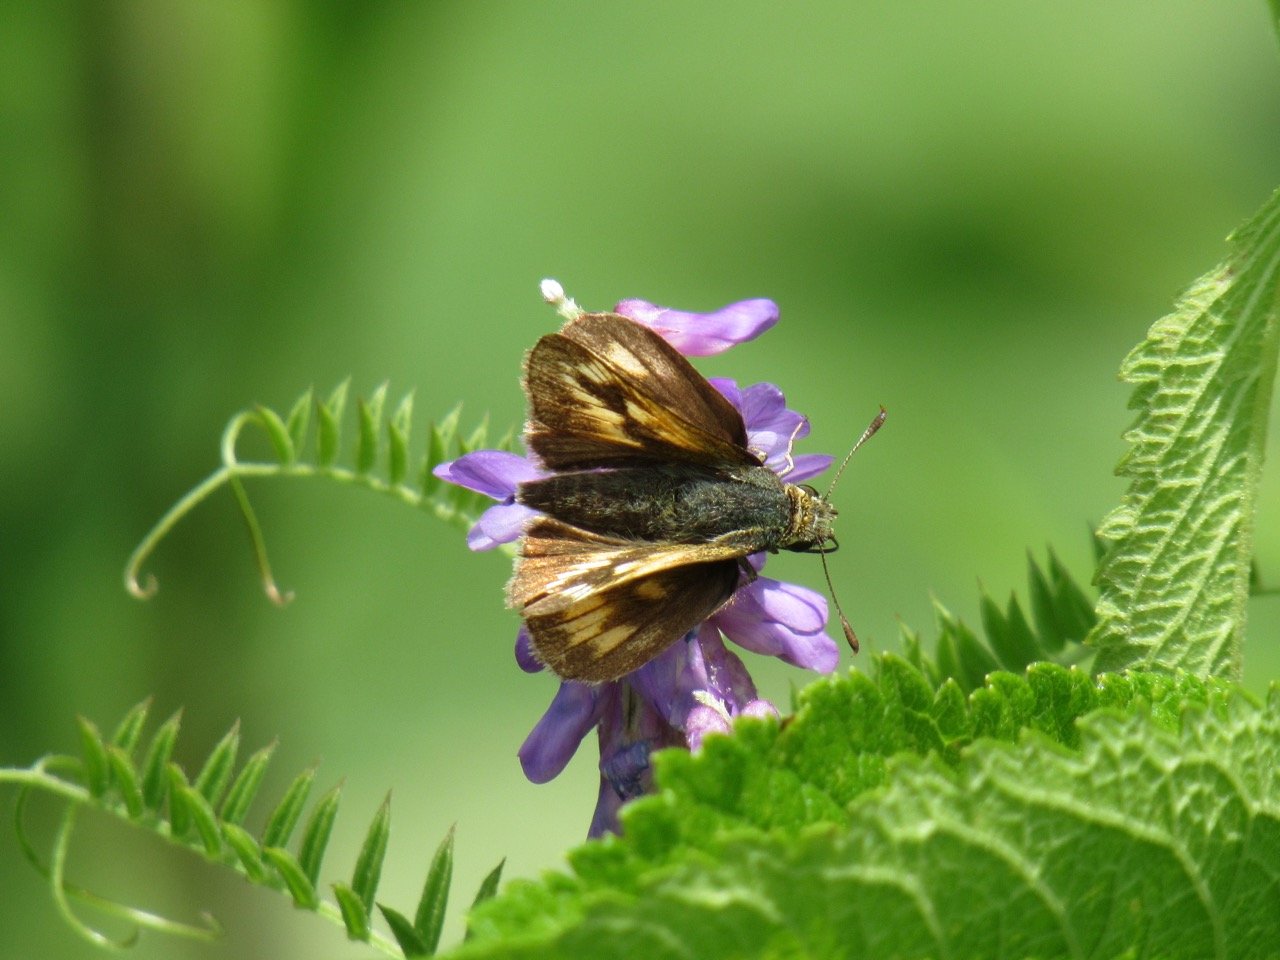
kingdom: Animalia
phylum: Arthropoda
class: Insecta
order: Lepidoptera
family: Hesperiidae
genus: Polites
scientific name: Polites
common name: Long Dash Skipper
